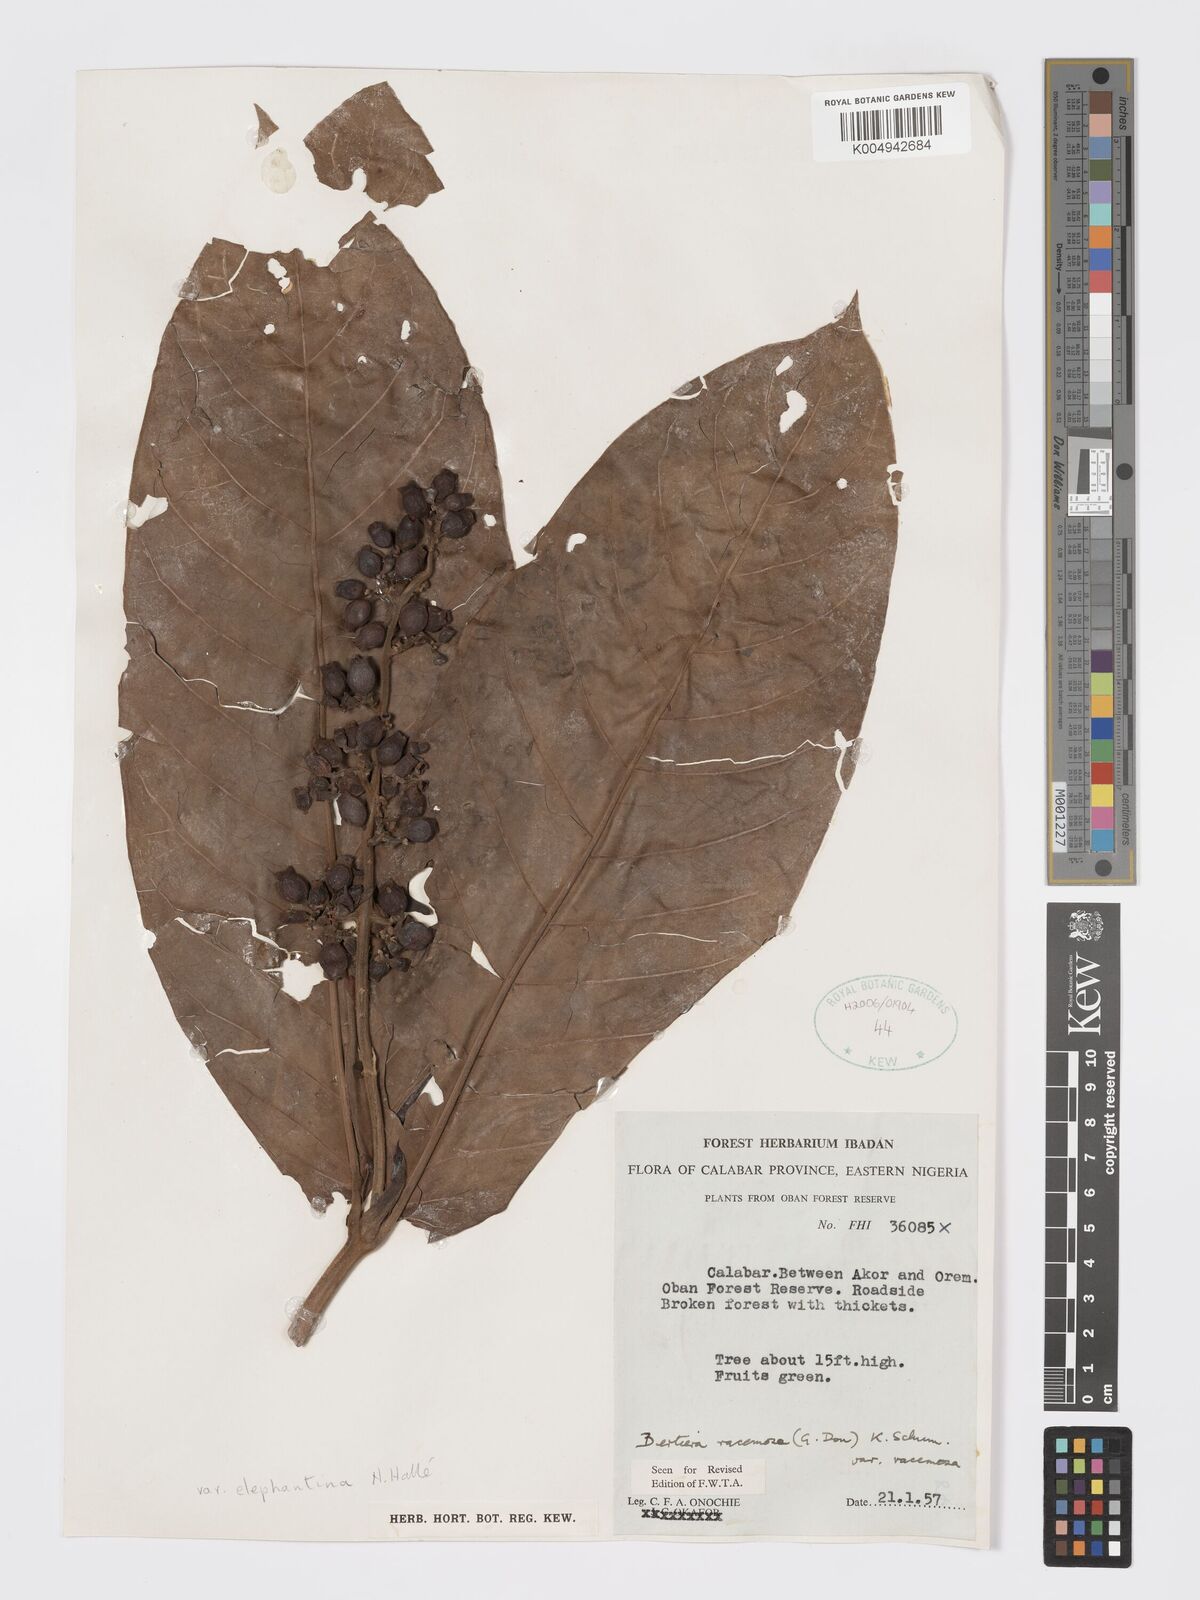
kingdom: Plantae
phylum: Tracheophyta
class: Magnoliopsida
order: Gentianales
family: Rubiaceae
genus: Bertiera
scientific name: Bertiera racemosa
